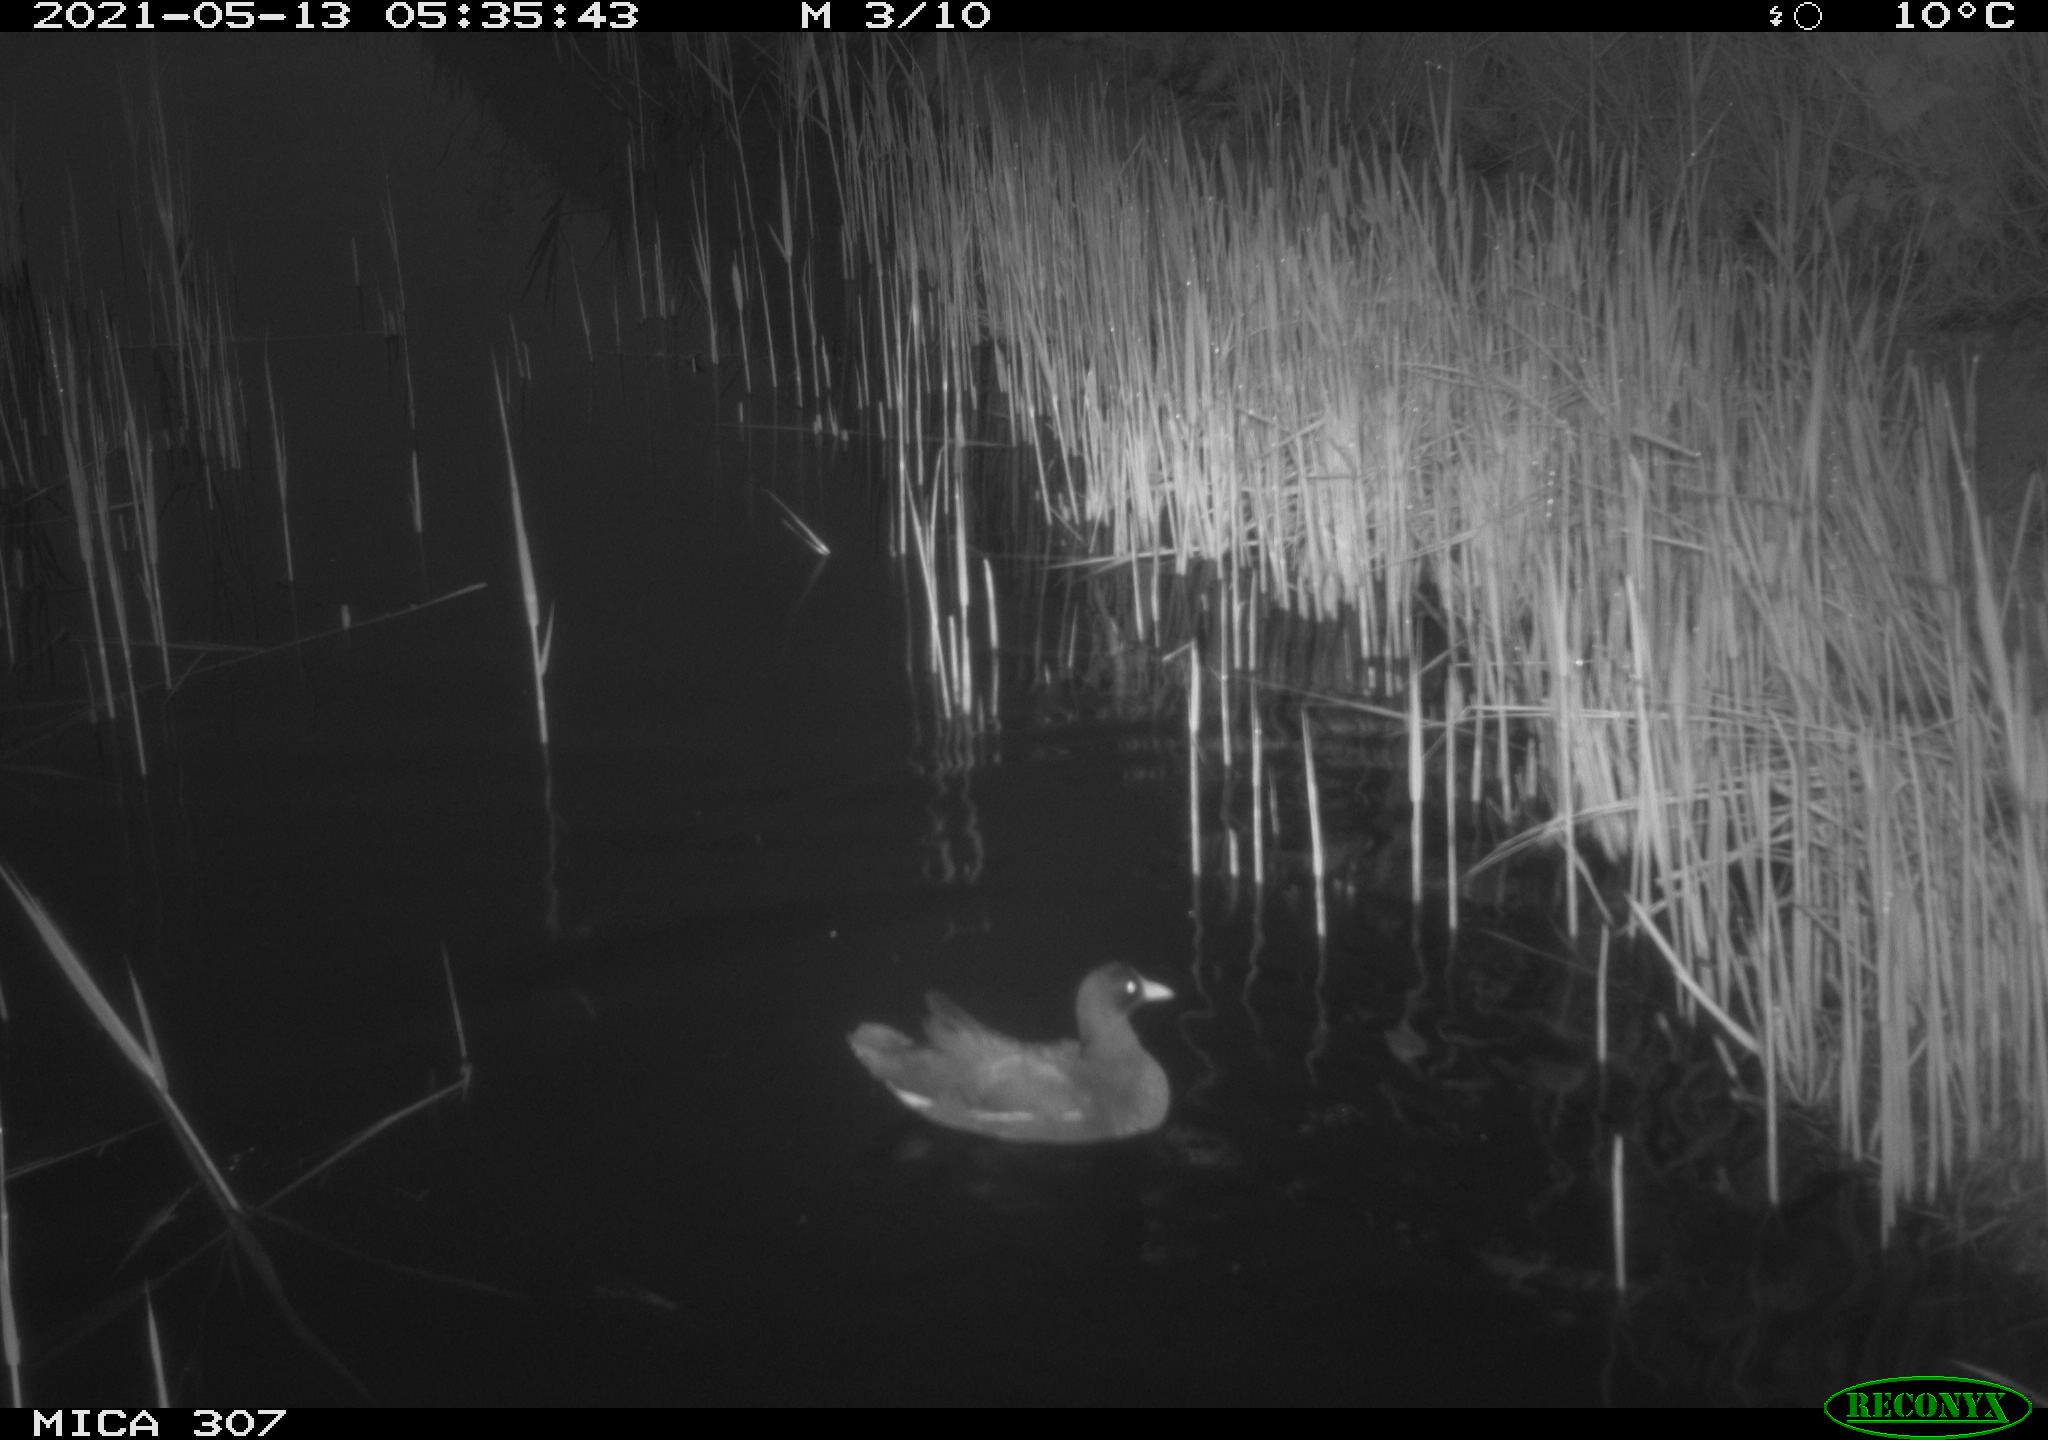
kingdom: Animalia
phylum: Chordata
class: Aves
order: Gruiformes
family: Rallidae
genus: Gallinula
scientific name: Gallinula chloropus
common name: Common moorhen
